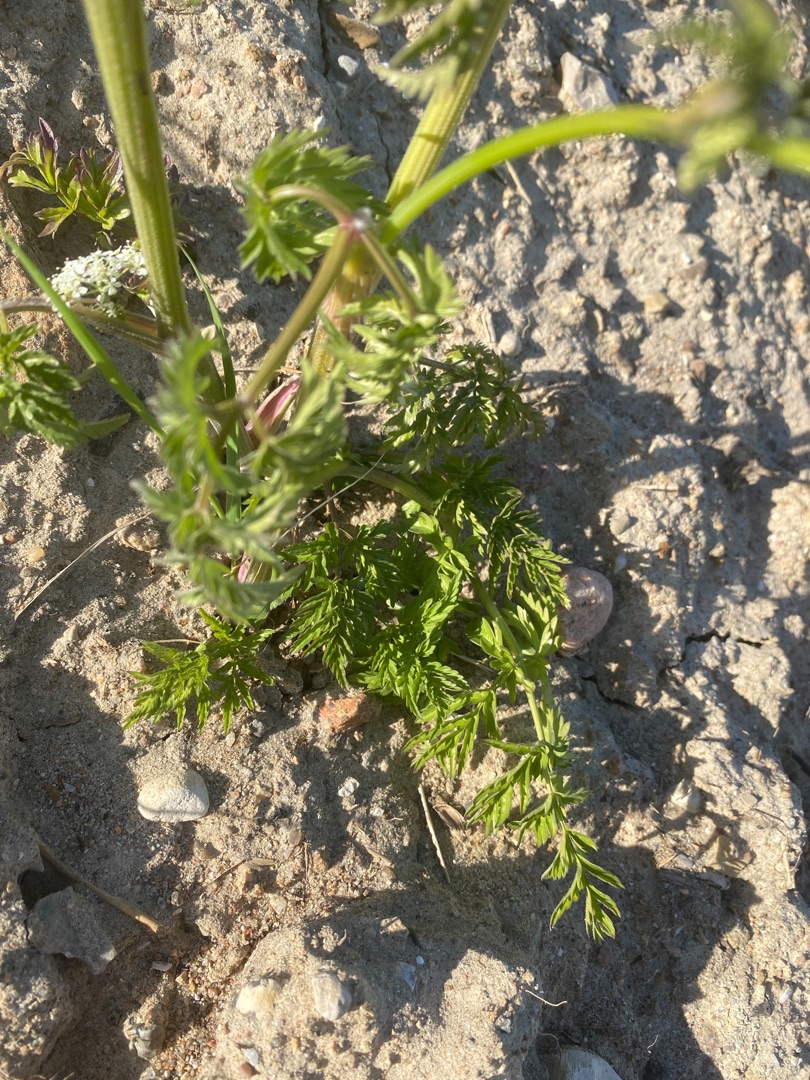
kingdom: Plantae
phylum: Tracheophyta
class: Magnoliopsida
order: Apiales
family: Apiaceae
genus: Anthriscus
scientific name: Anthriscus sylvestris
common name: Vild kørvel
